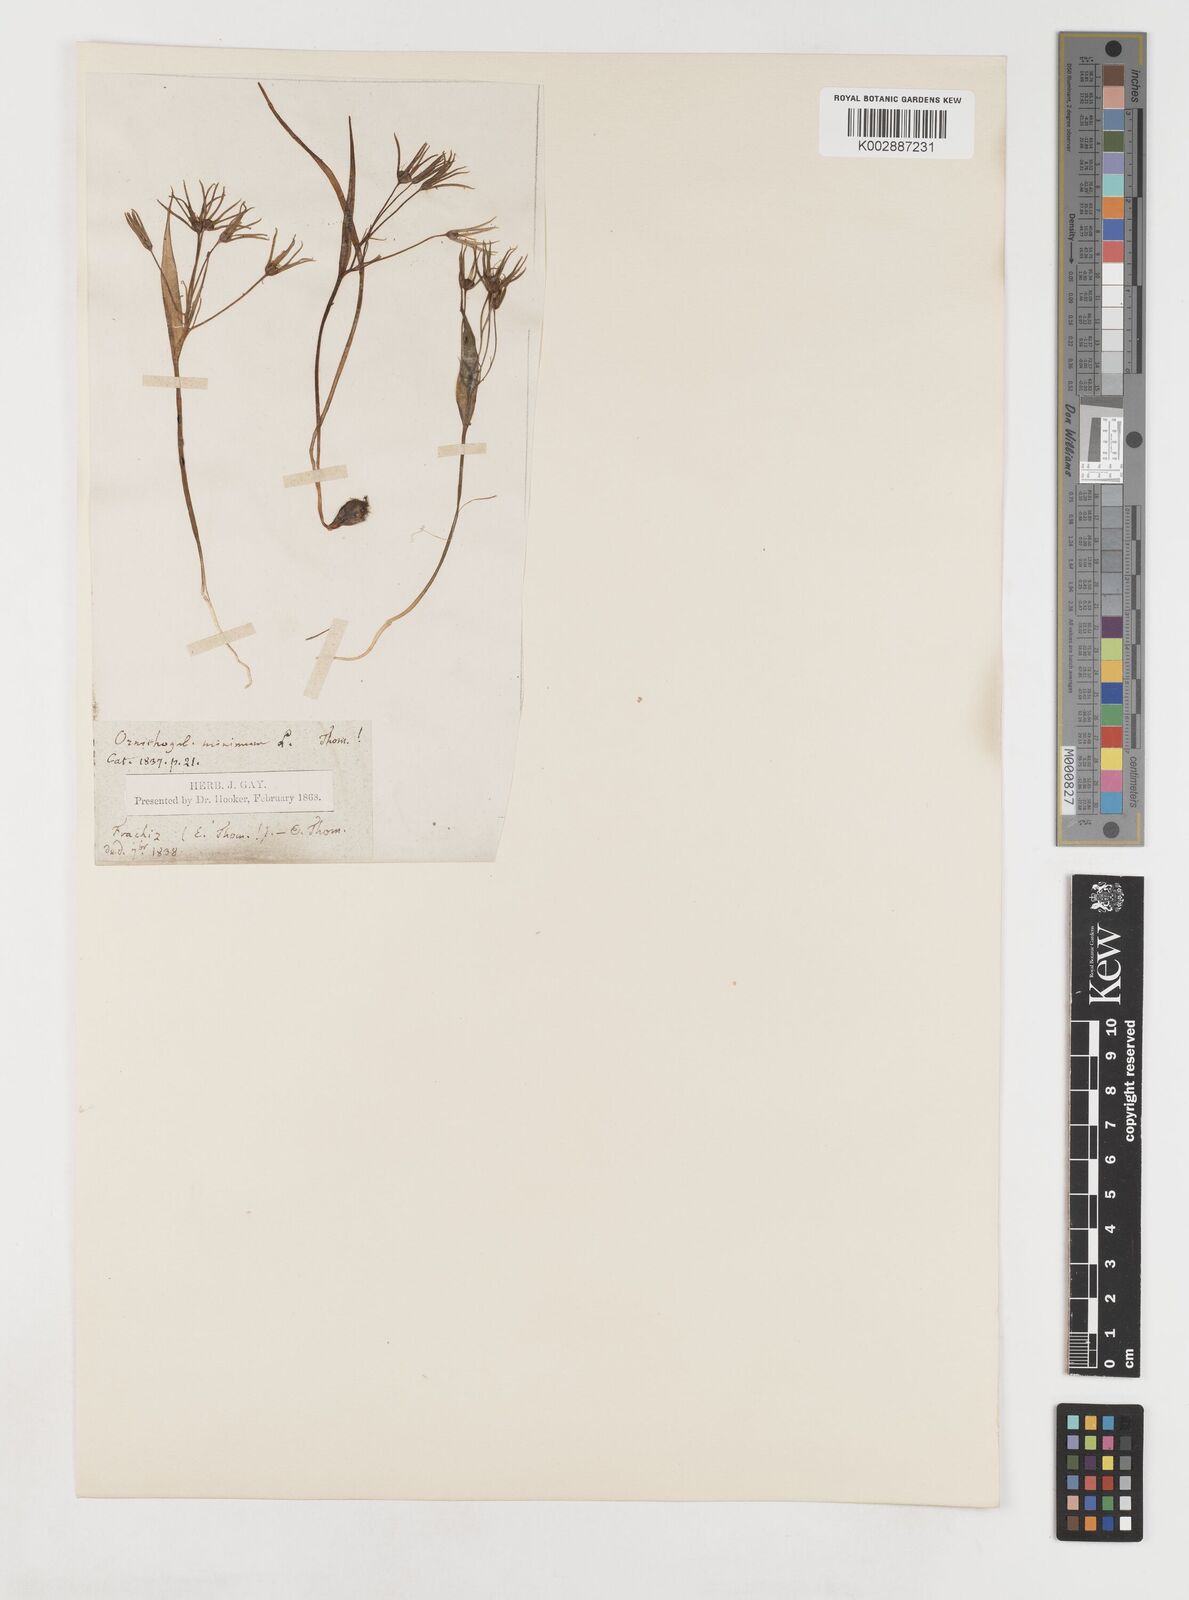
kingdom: Plantae
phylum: Tracheophyta
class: Liliopsida
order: Liliales
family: Liliaceae
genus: Gagea
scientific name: Gagea minima
